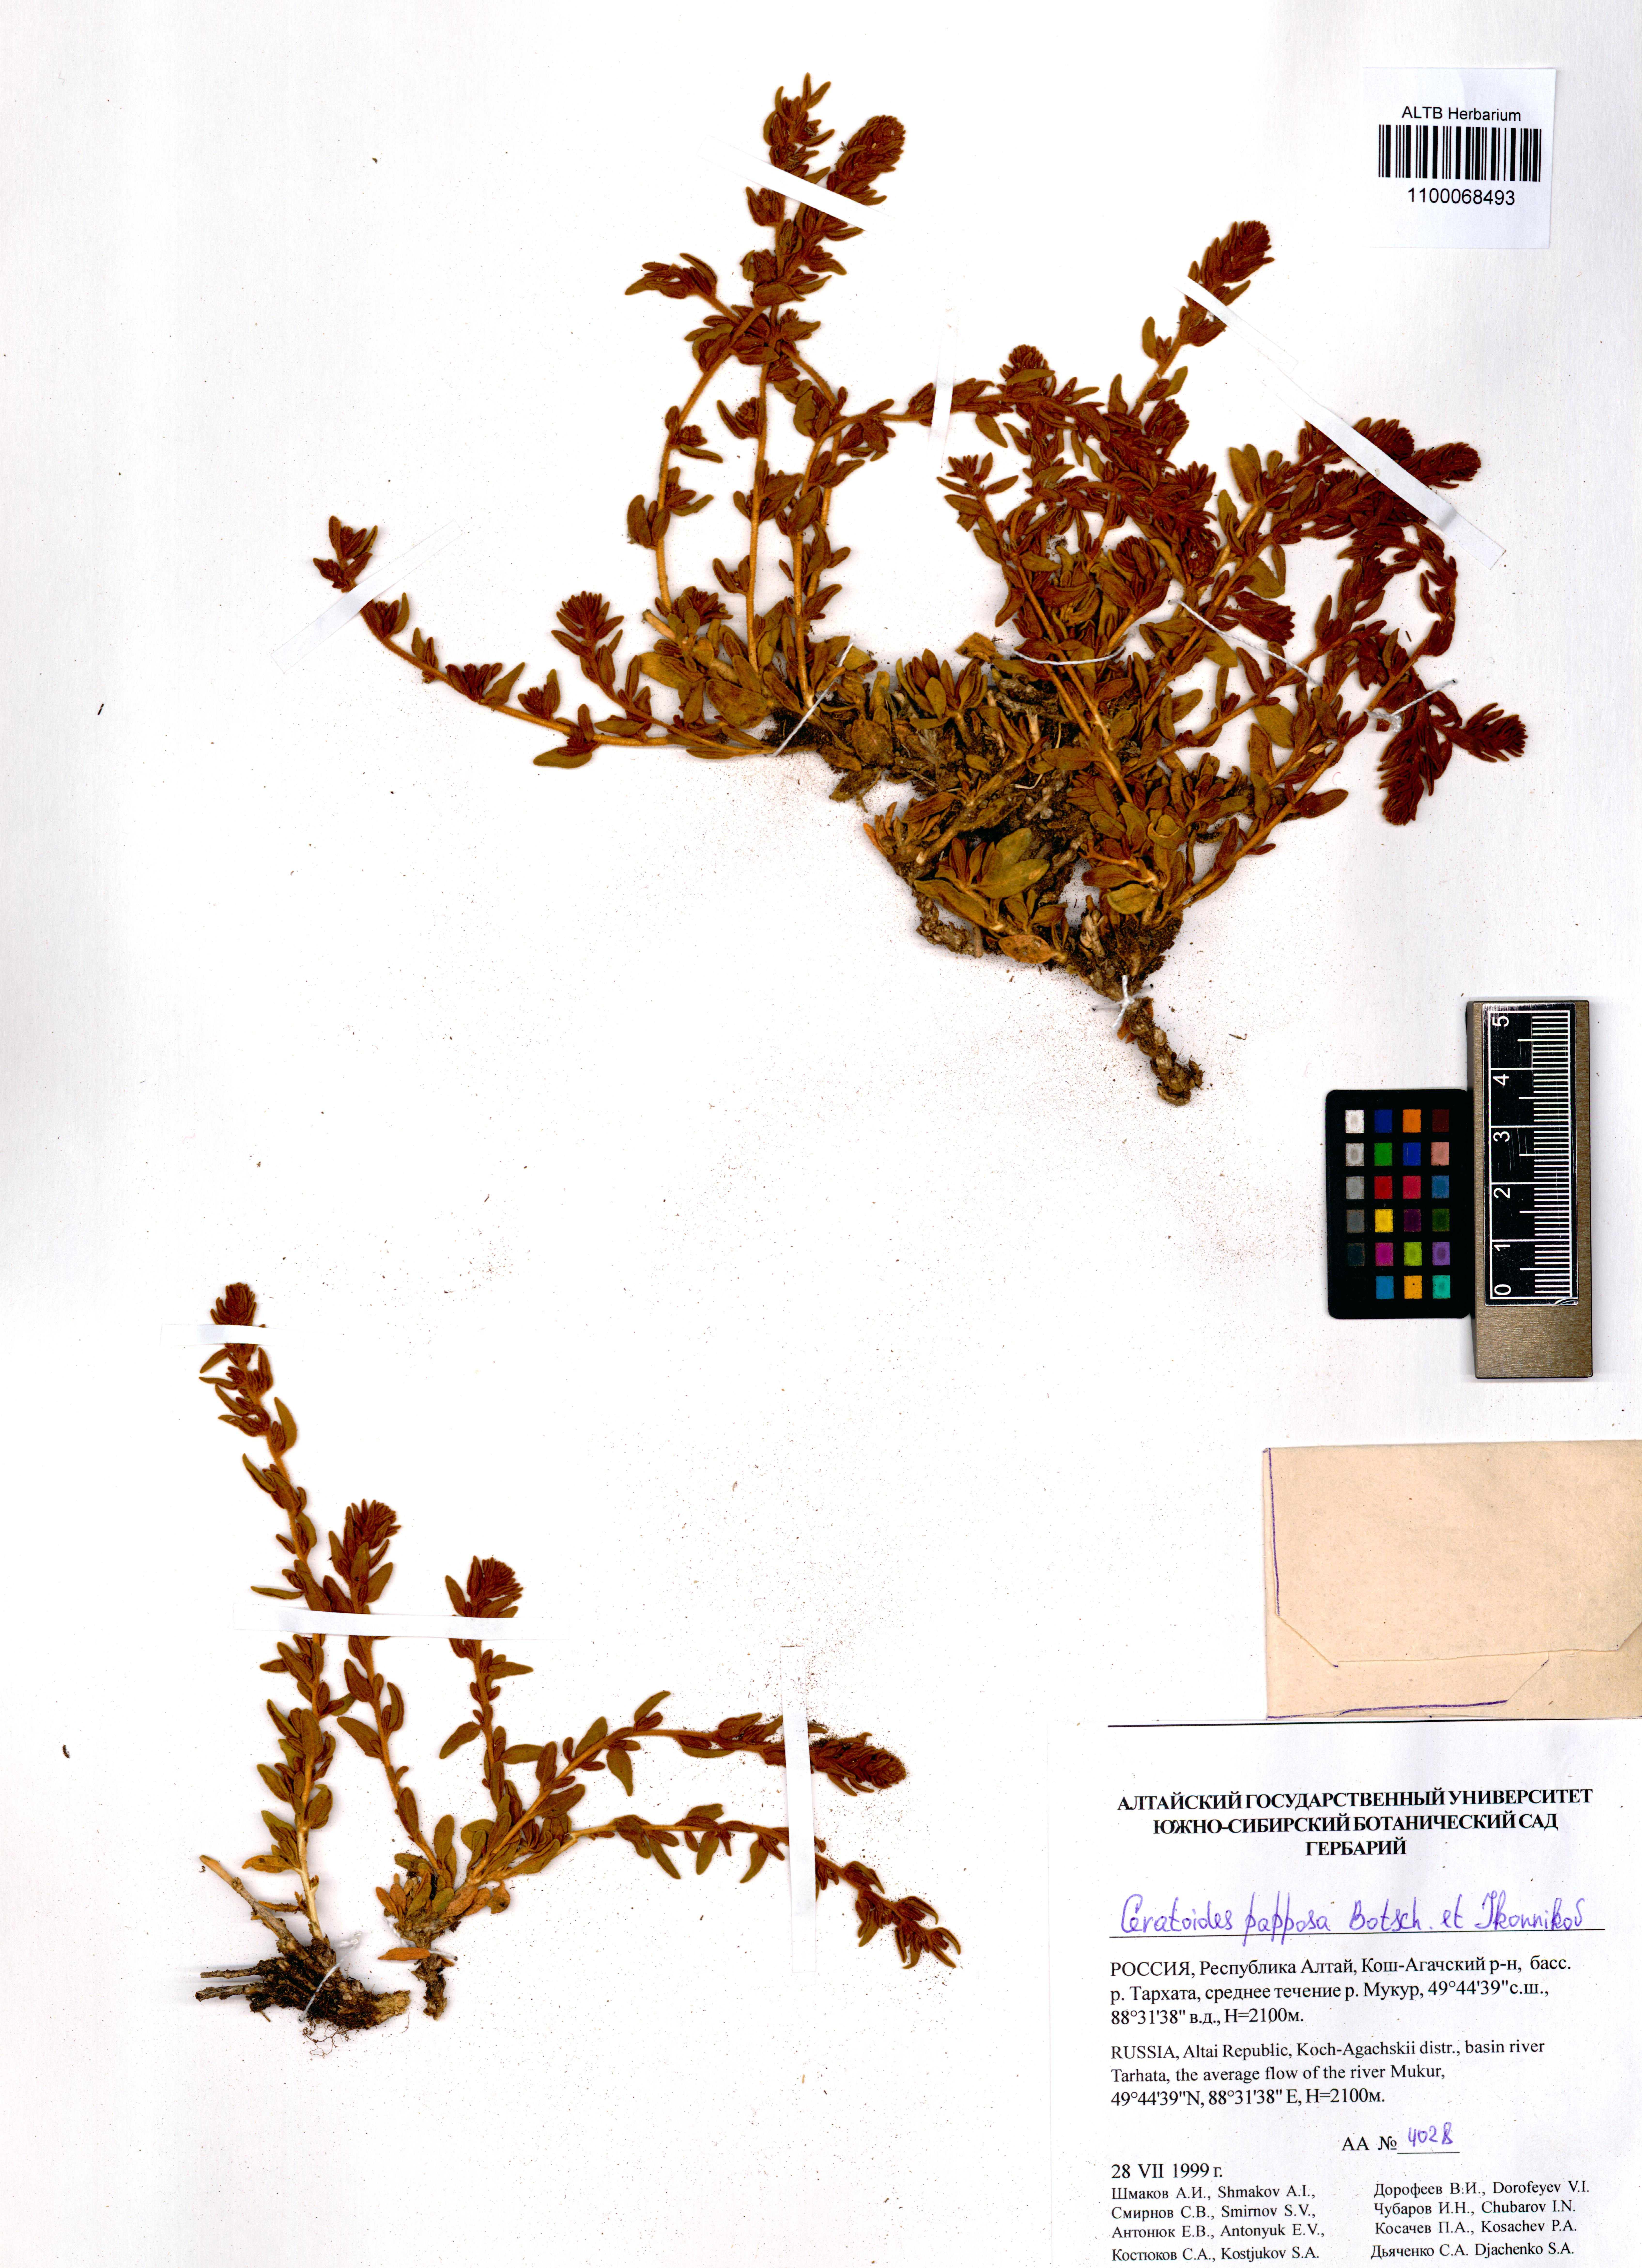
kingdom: Plantae
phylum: Tracheophyta
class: Magnoliopsida
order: Caryophyllales
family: Amaranthaceae
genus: Krascheninnikovia
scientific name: Krascheninnikovia ceratoides
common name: Pamirian winterfat
